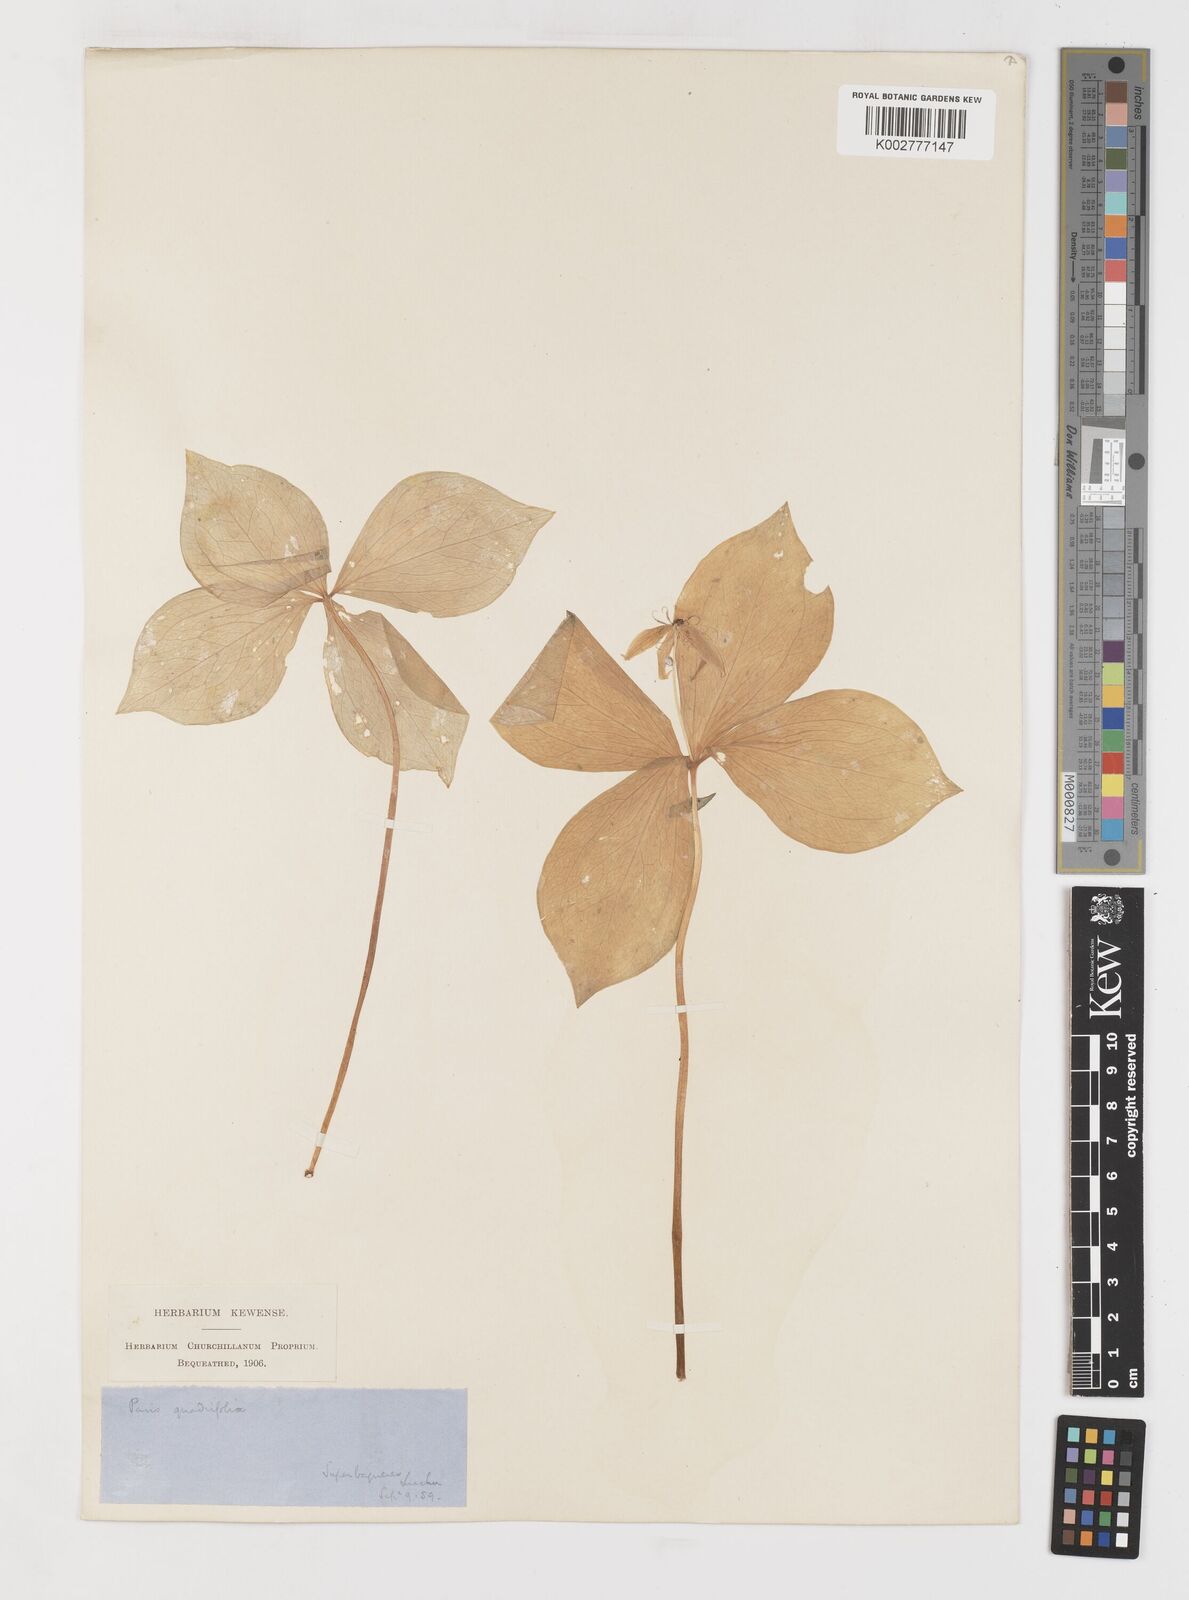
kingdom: Plantae
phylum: Tracheophyta
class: Liliopsida
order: Liliales
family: Melanthiaceae
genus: Paris
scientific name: Paris quadrifolia
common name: Herb-paris
